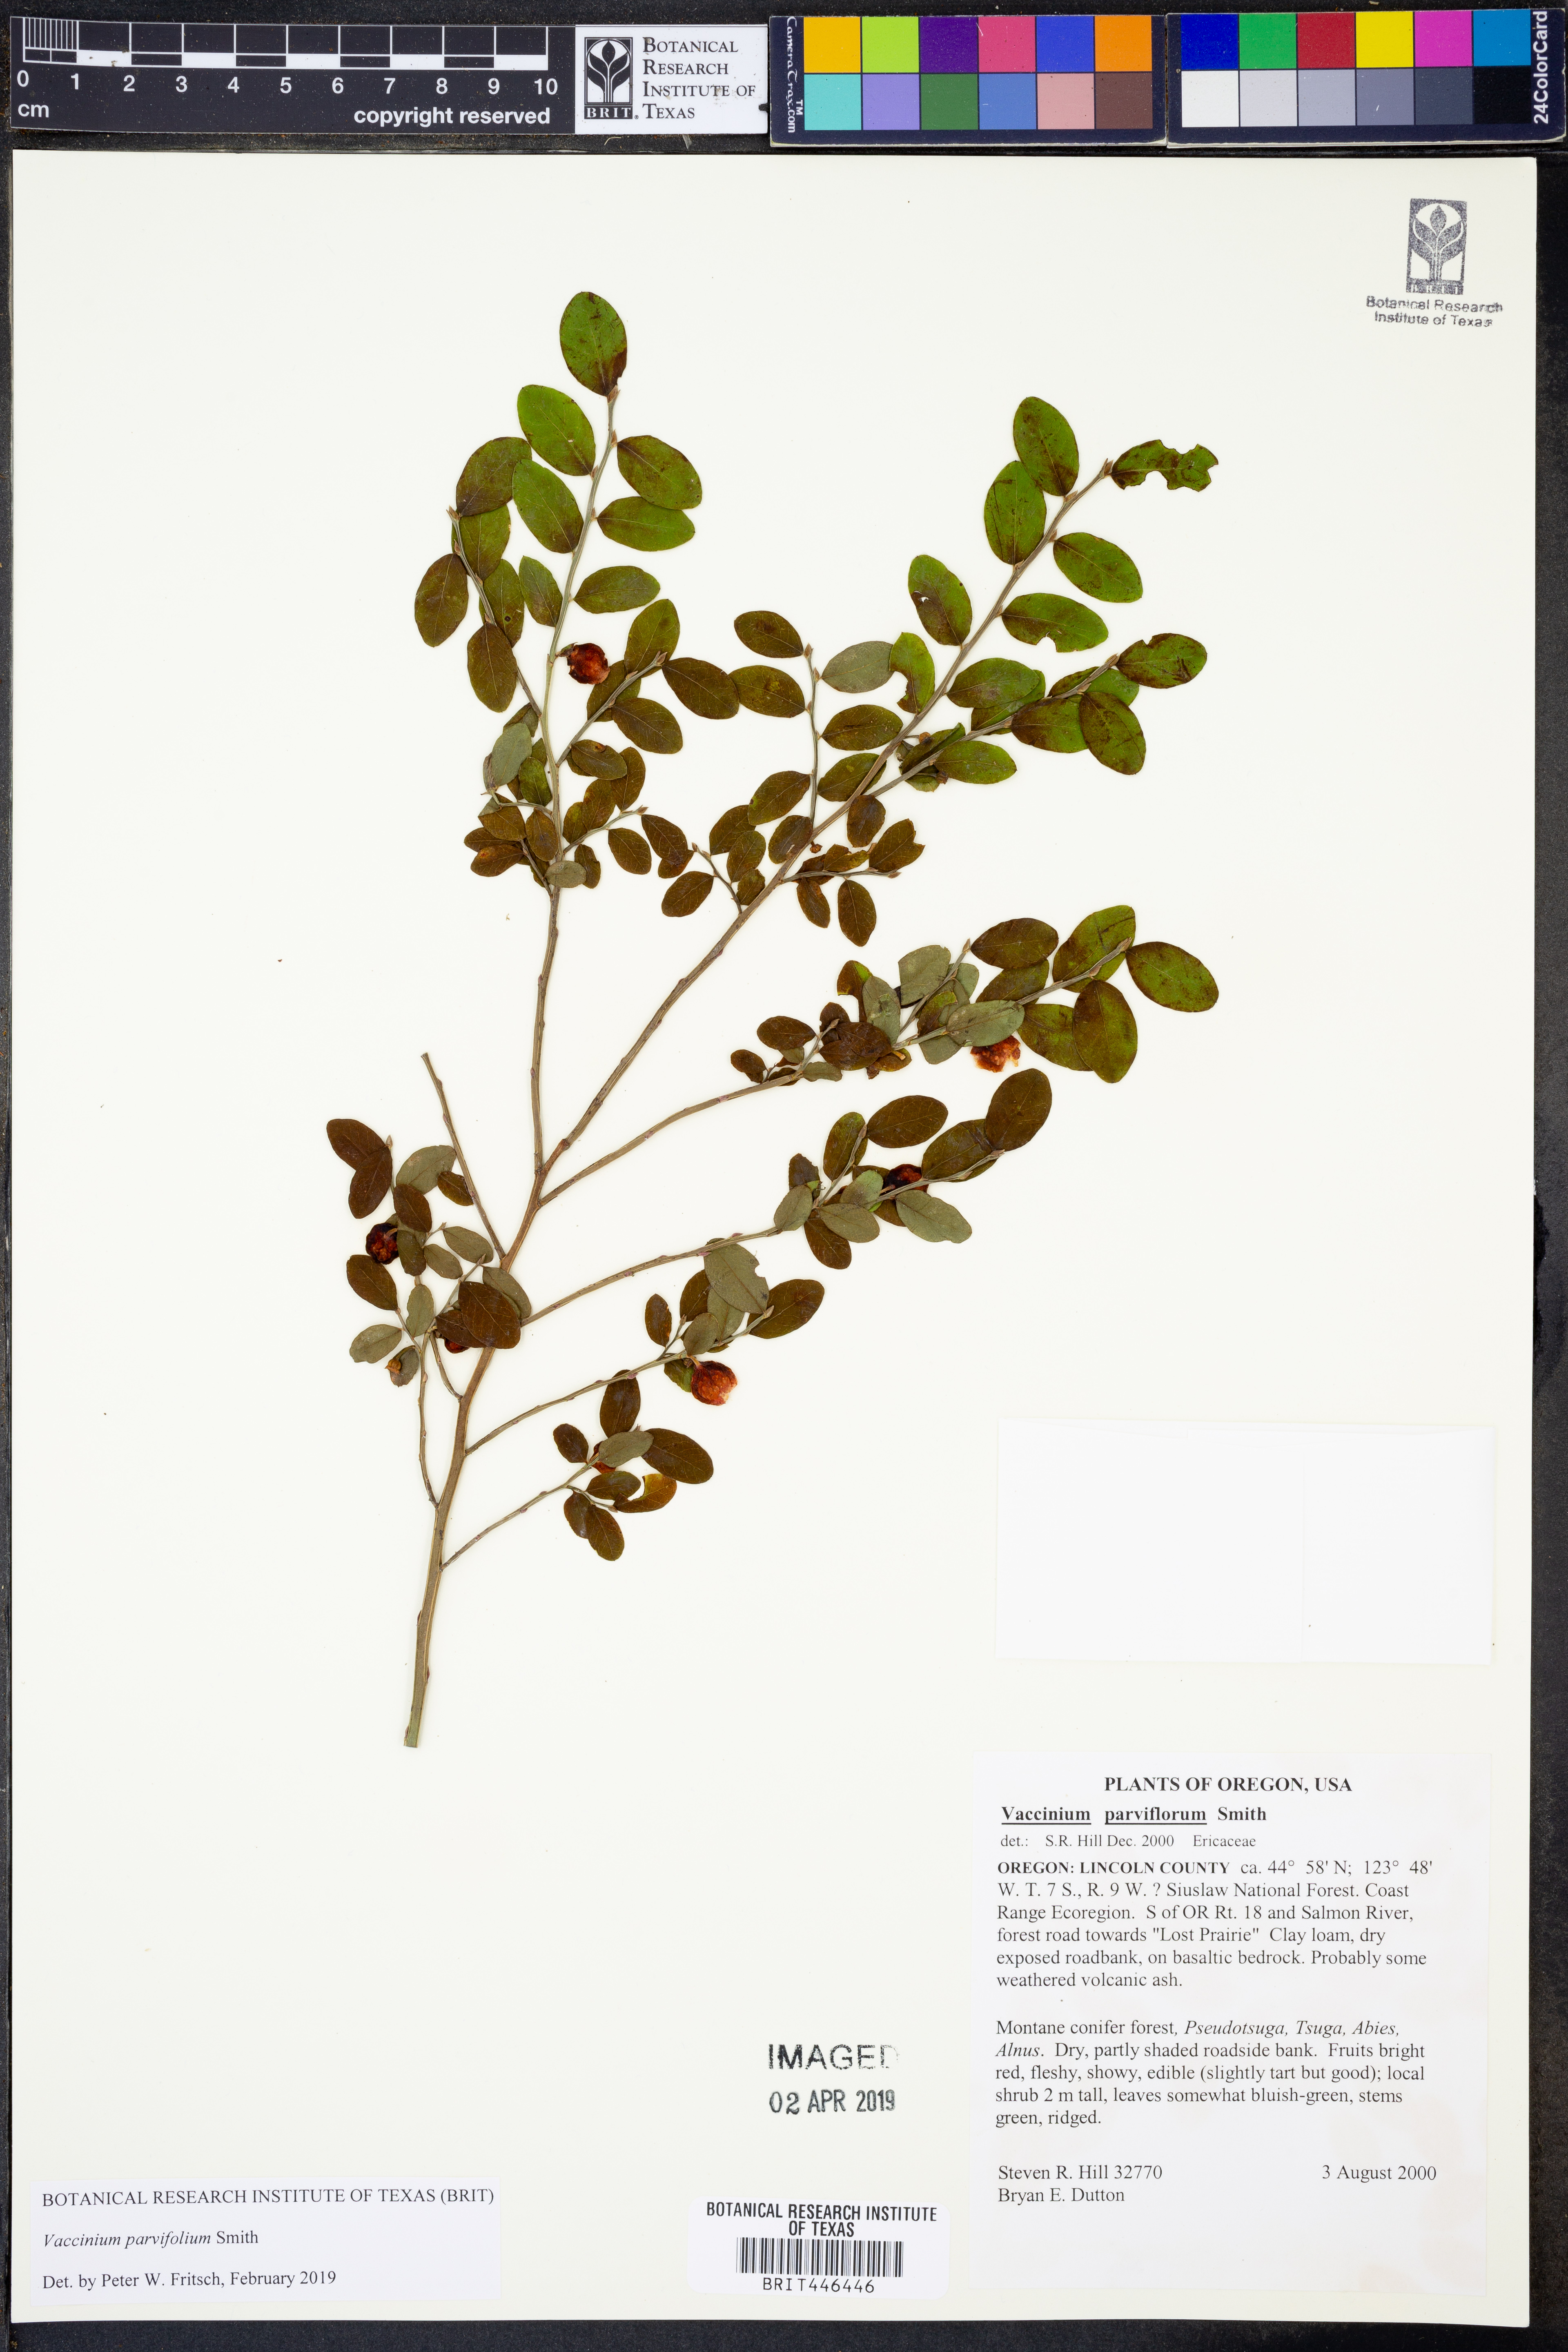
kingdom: Plantae
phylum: Tracheophyta
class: Magnoliopsida
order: Ericales
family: Ericaceae
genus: Vaccinium
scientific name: Vaccinium parvifolium
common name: Red-huckleberry
